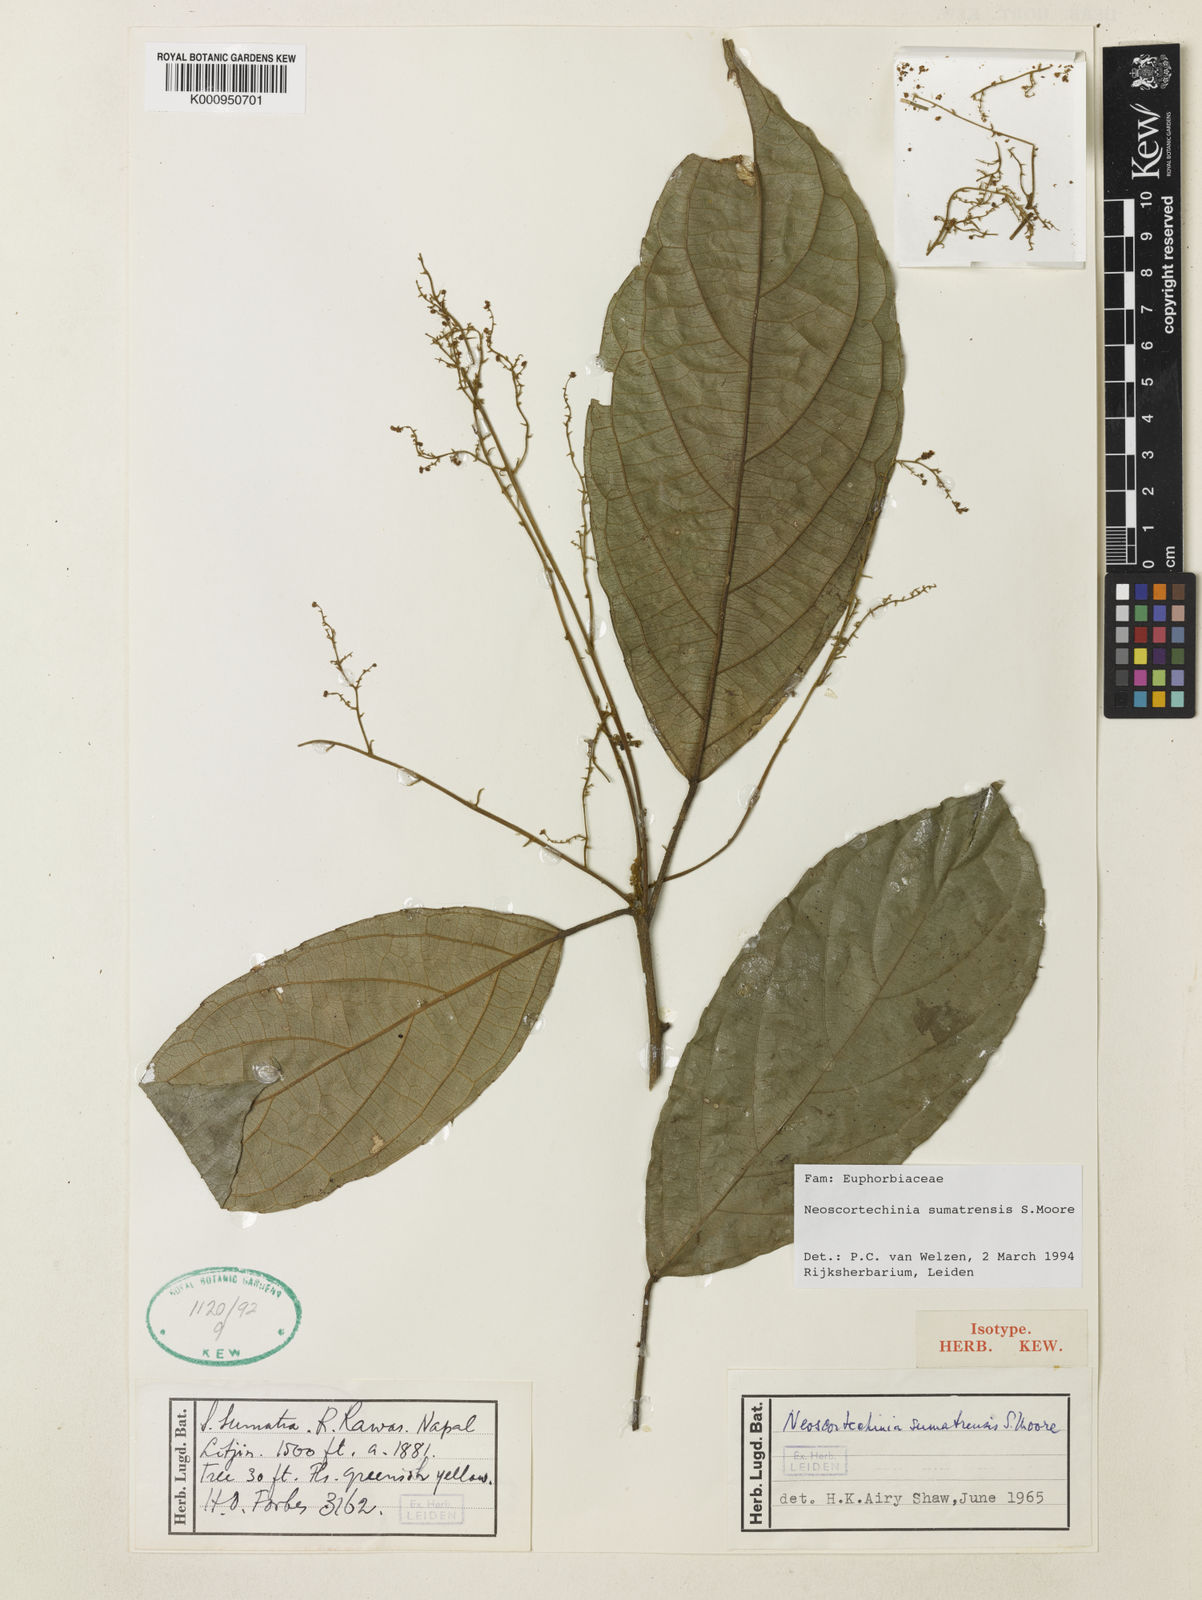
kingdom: Plantae
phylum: Tracheophyta
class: Magnoliopsida
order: Malpighiales
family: Euphorbiaceae
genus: Neoscortechinia
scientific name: Neoscortechinia sumatrensis
